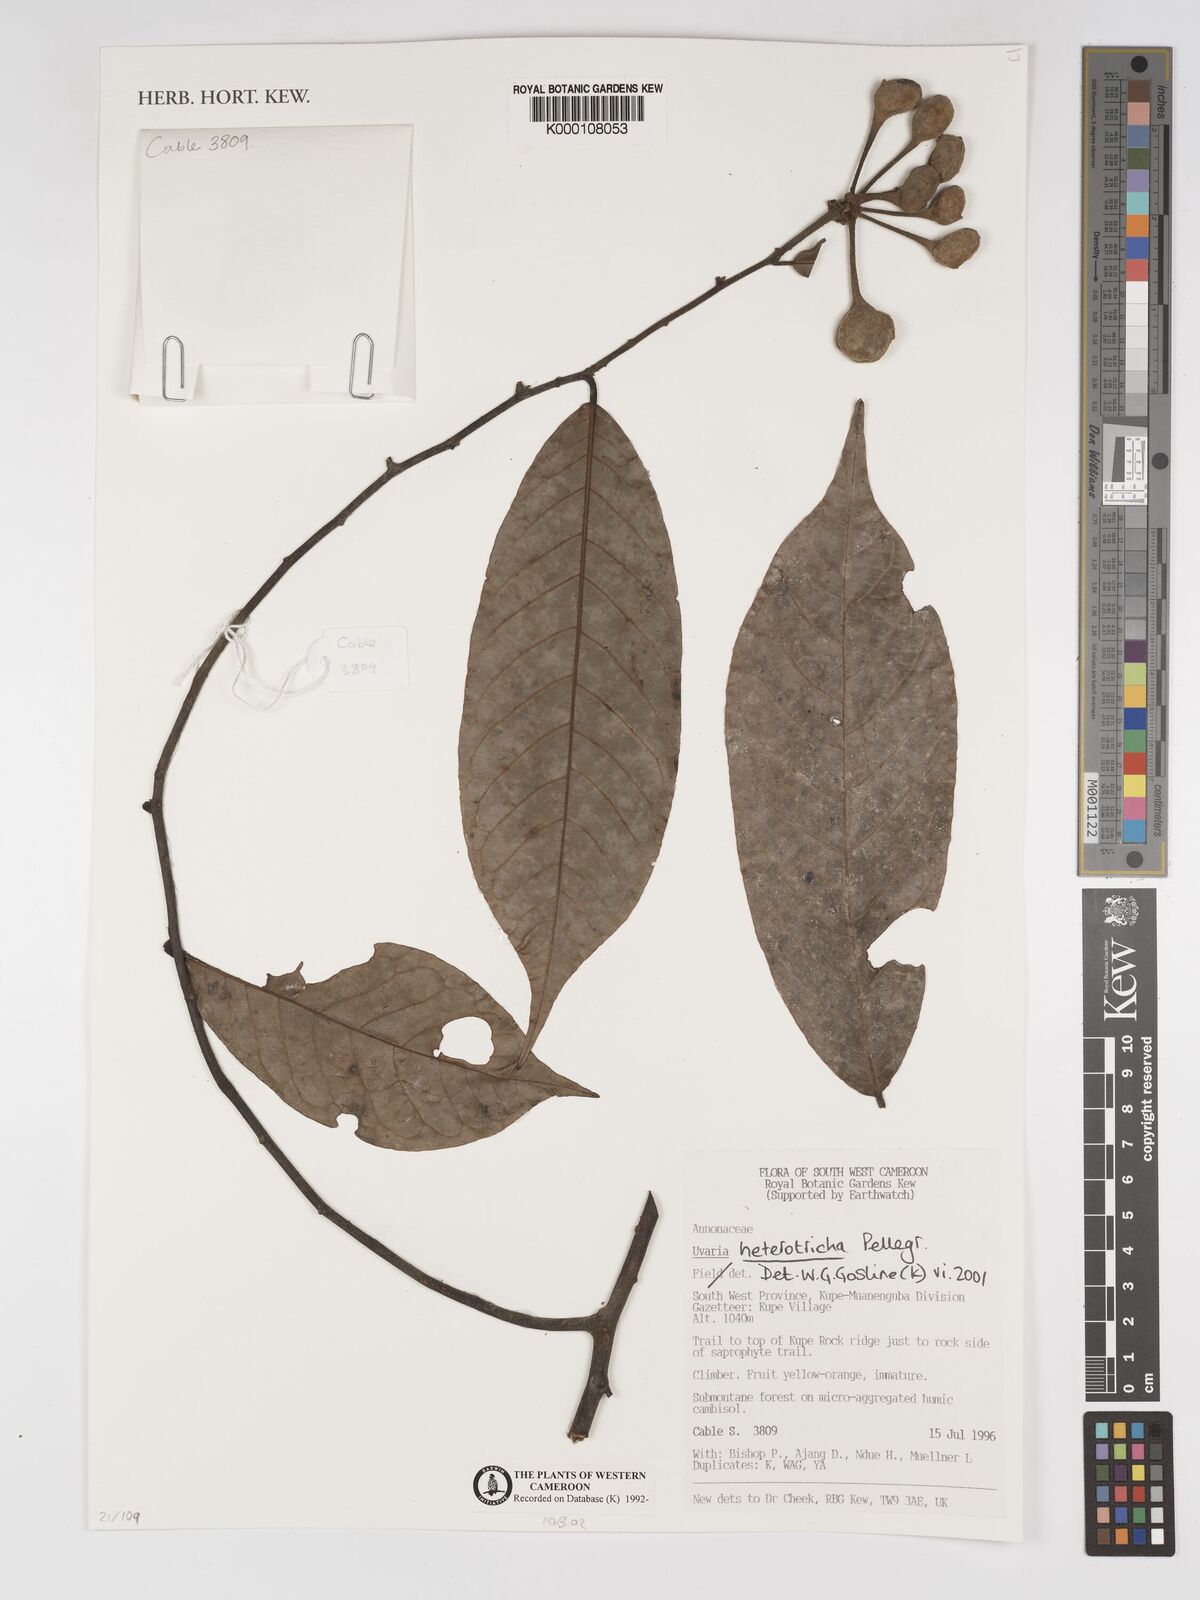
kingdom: Plantae
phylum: Tracheophyta
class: Magnoliopsida
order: Magnoliales
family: Annonaceae
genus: Uvaria
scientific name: Uvaria heterotricha
